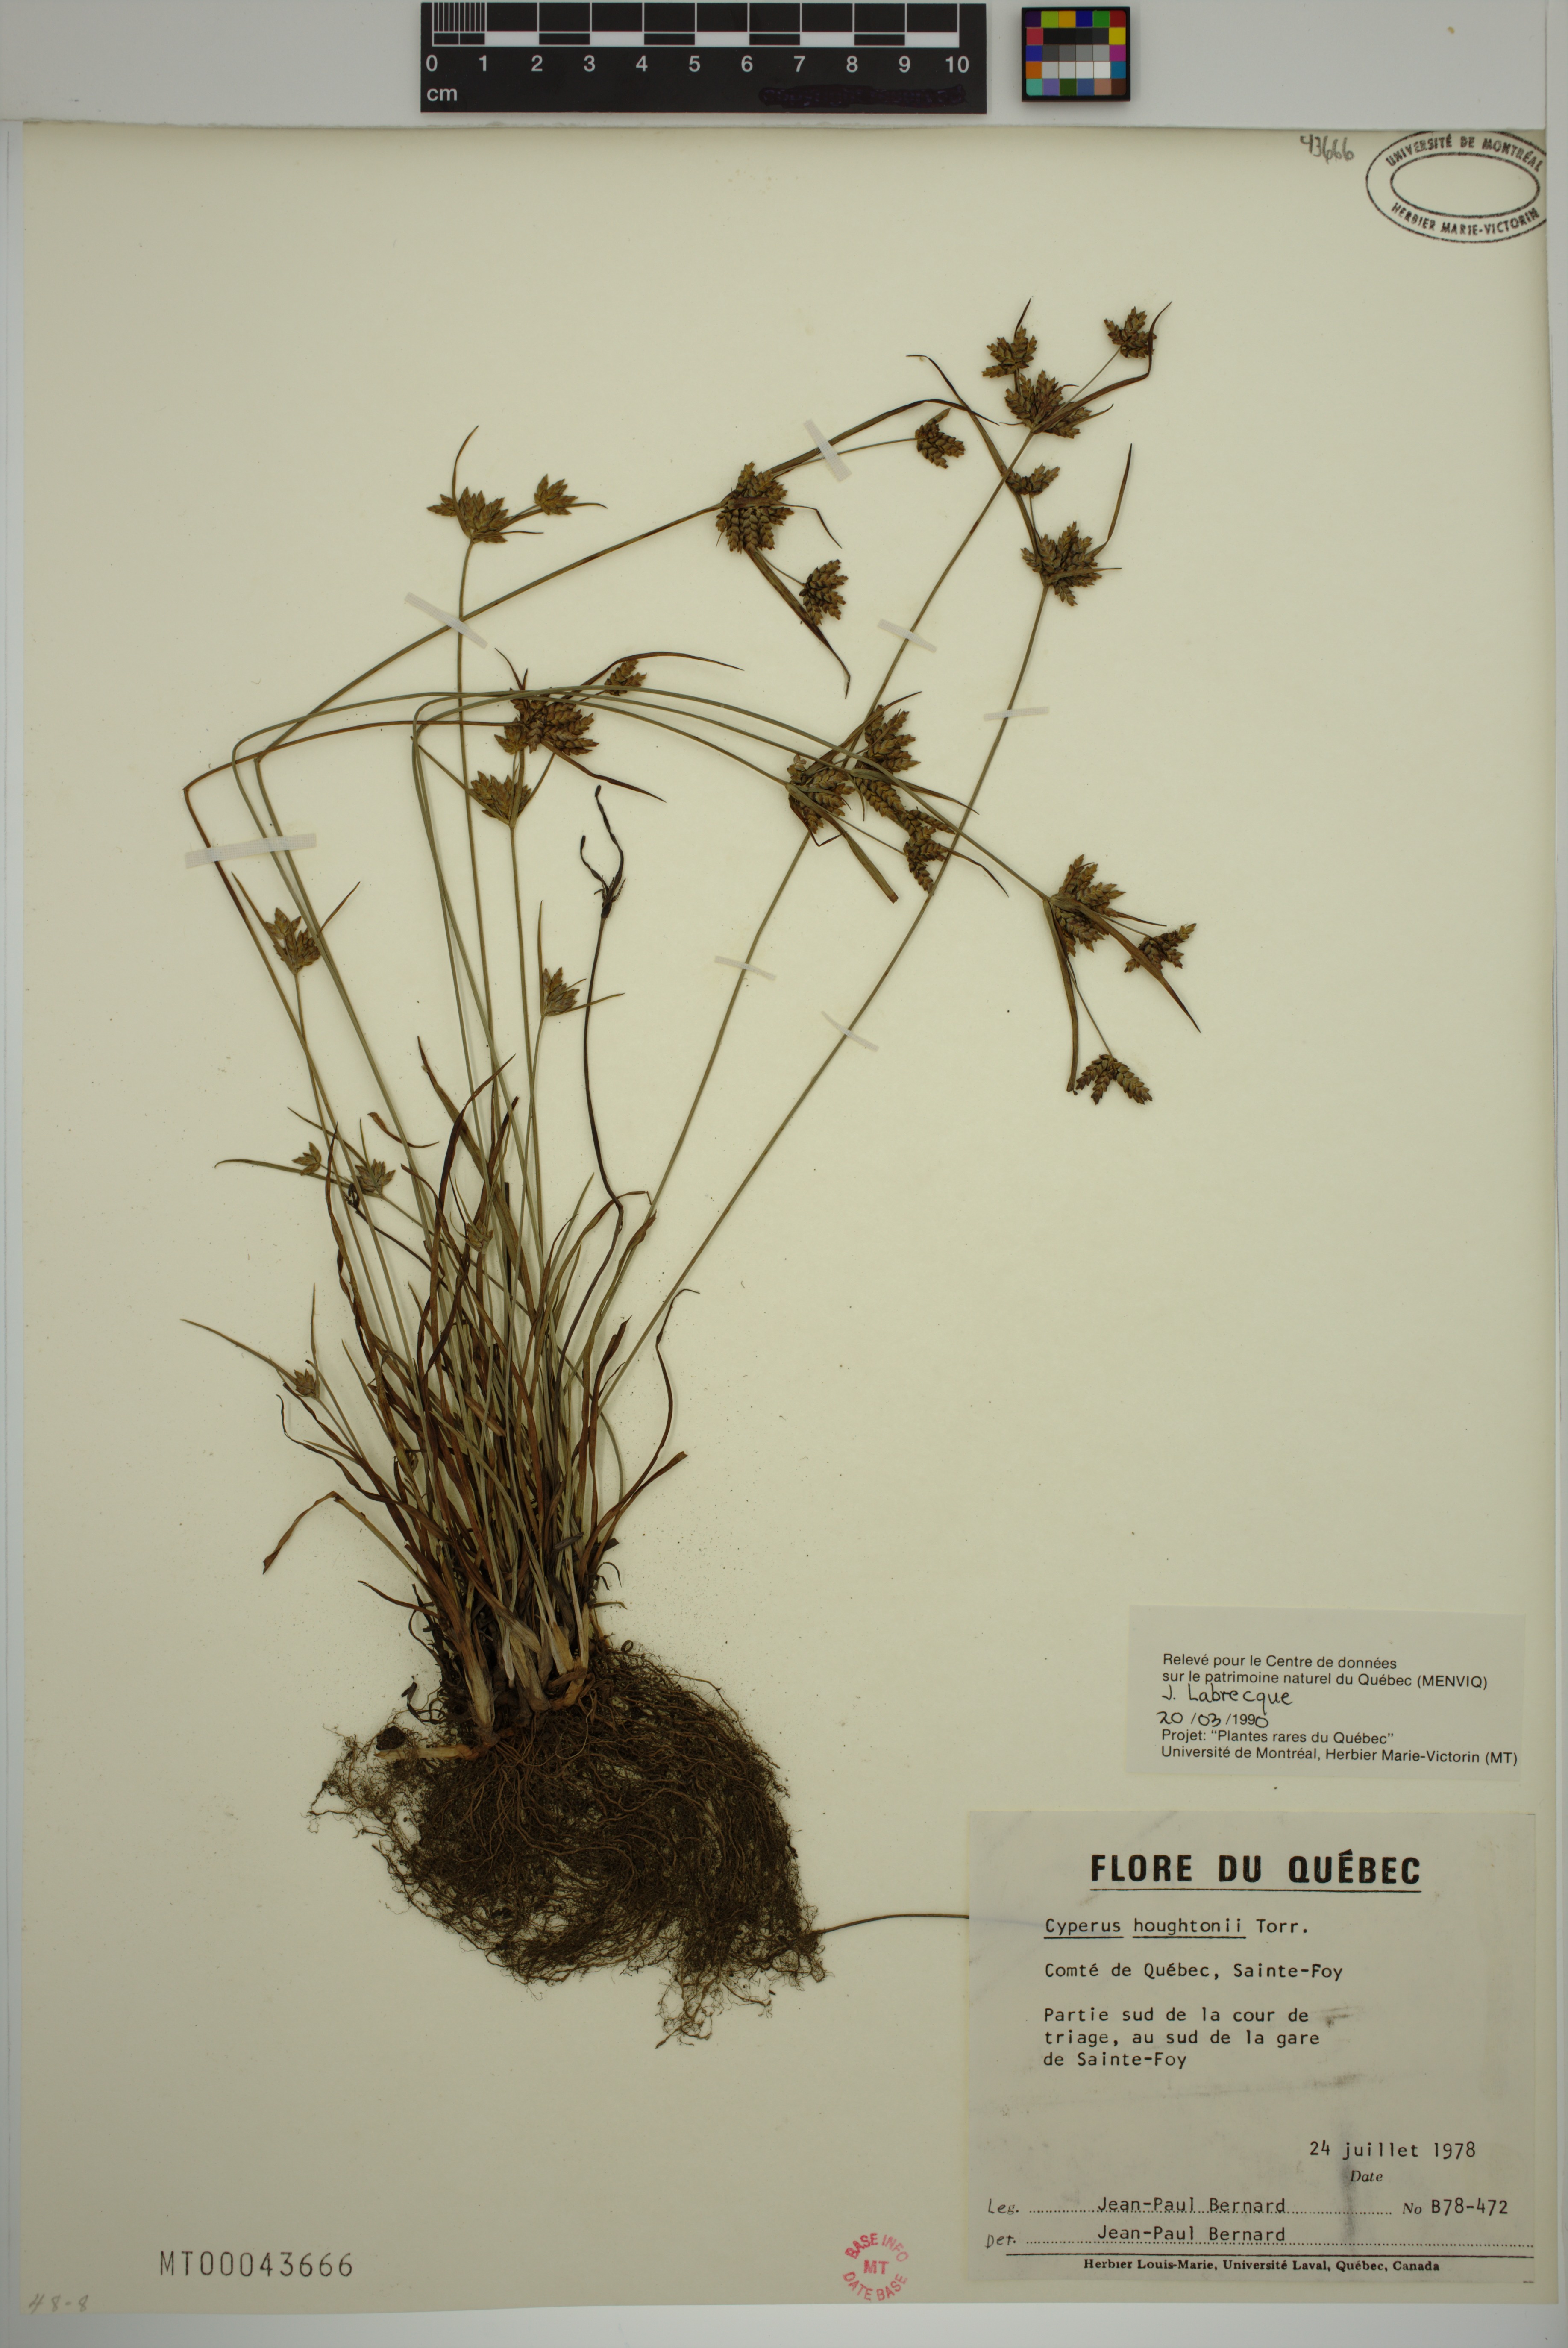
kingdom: Plantae
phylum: Tracheophyta
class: Liliopsida
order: Poales
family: Cyperaceae
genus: Cyperus
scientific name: Cyperus houghtonii
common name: Houghton's cyperus
